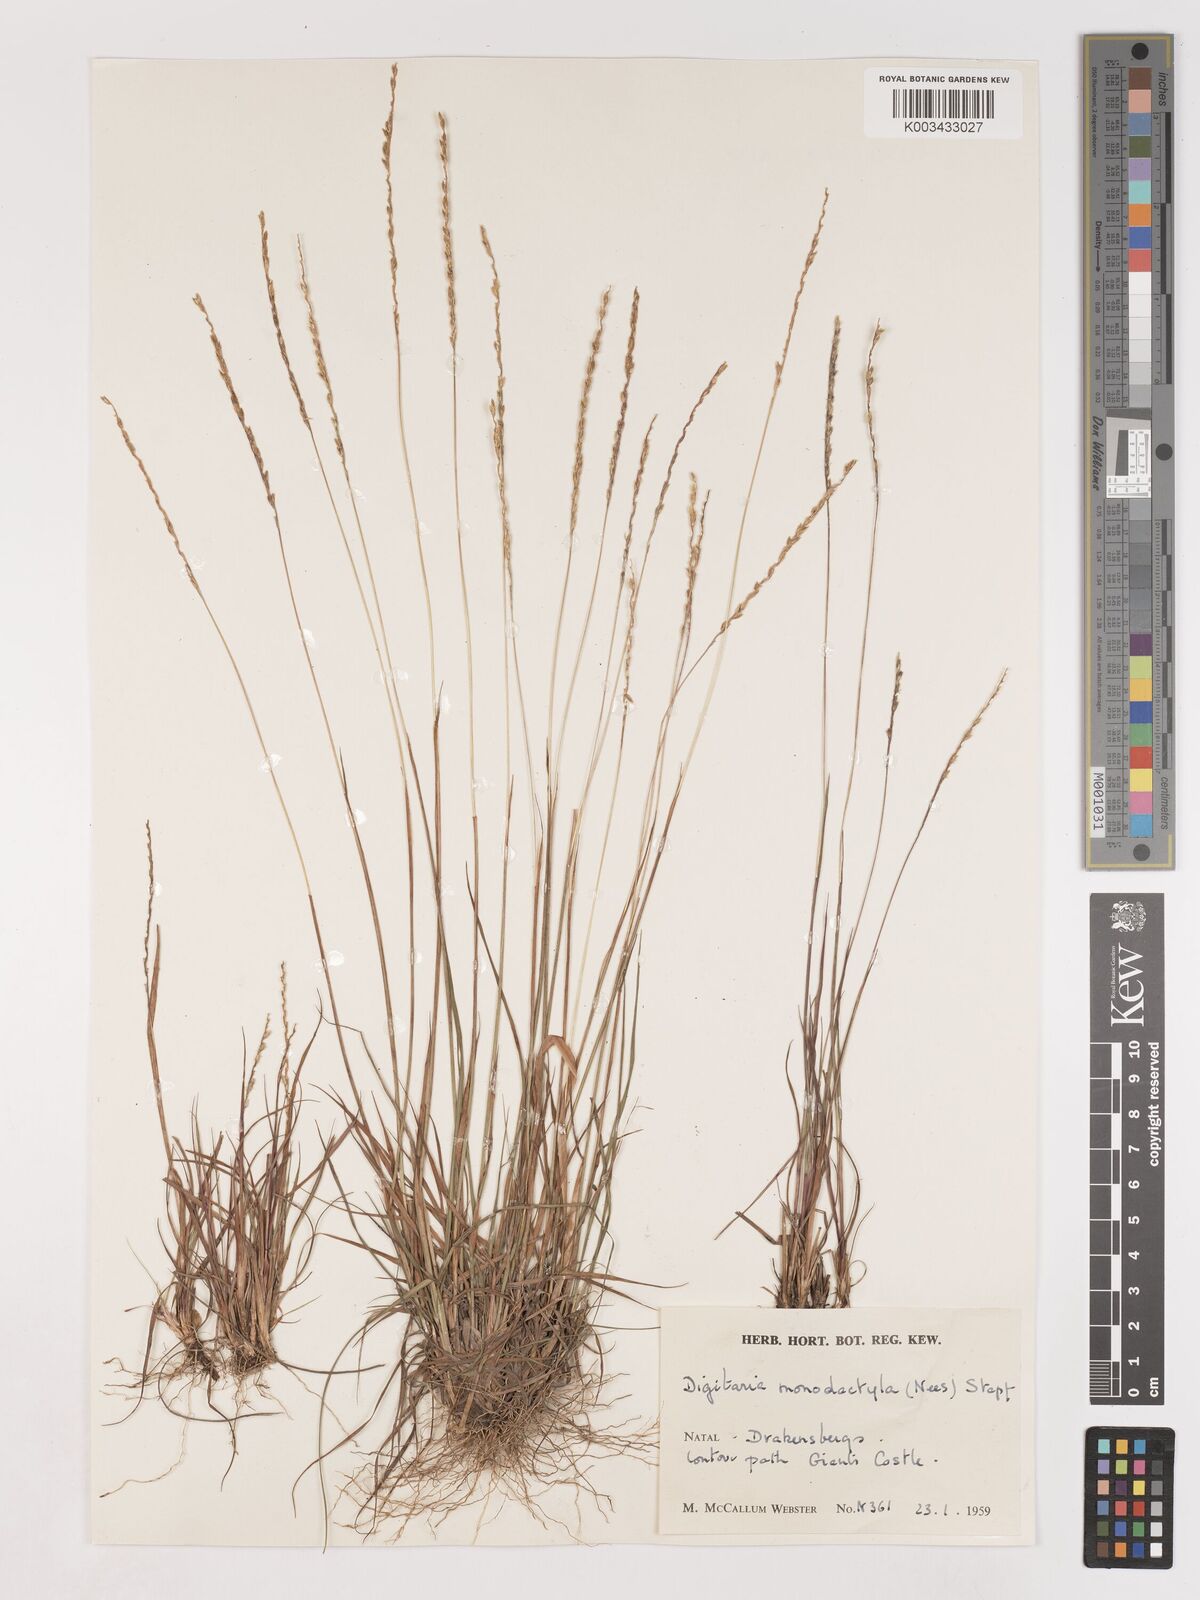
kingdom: Plantae
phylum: Tracheophyta
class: Liliopsida
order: Poales
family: Poaceae
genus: Digitaria
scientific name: Digitaria monodactyla
